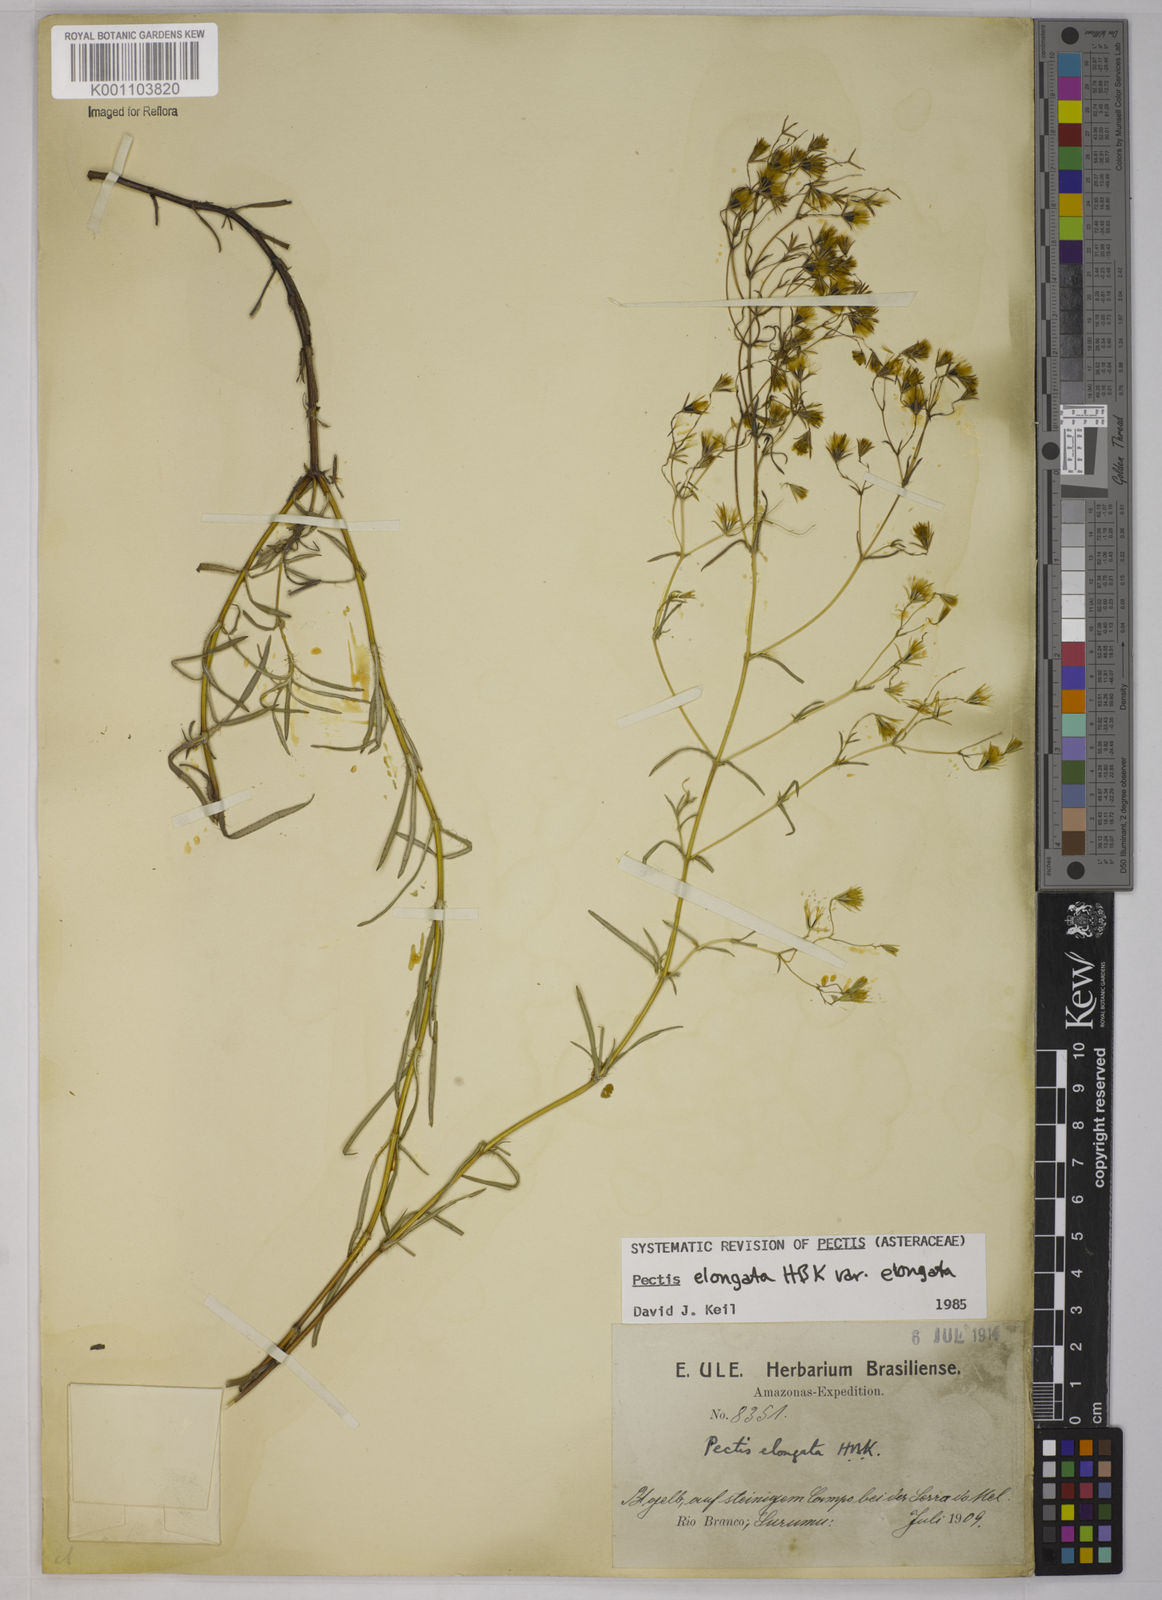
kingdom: Plantae
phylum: Tracheophyta
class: Magnoliopsida
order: Asterales
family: Asteraceae
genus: Pectis
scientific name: Pectis elongata
